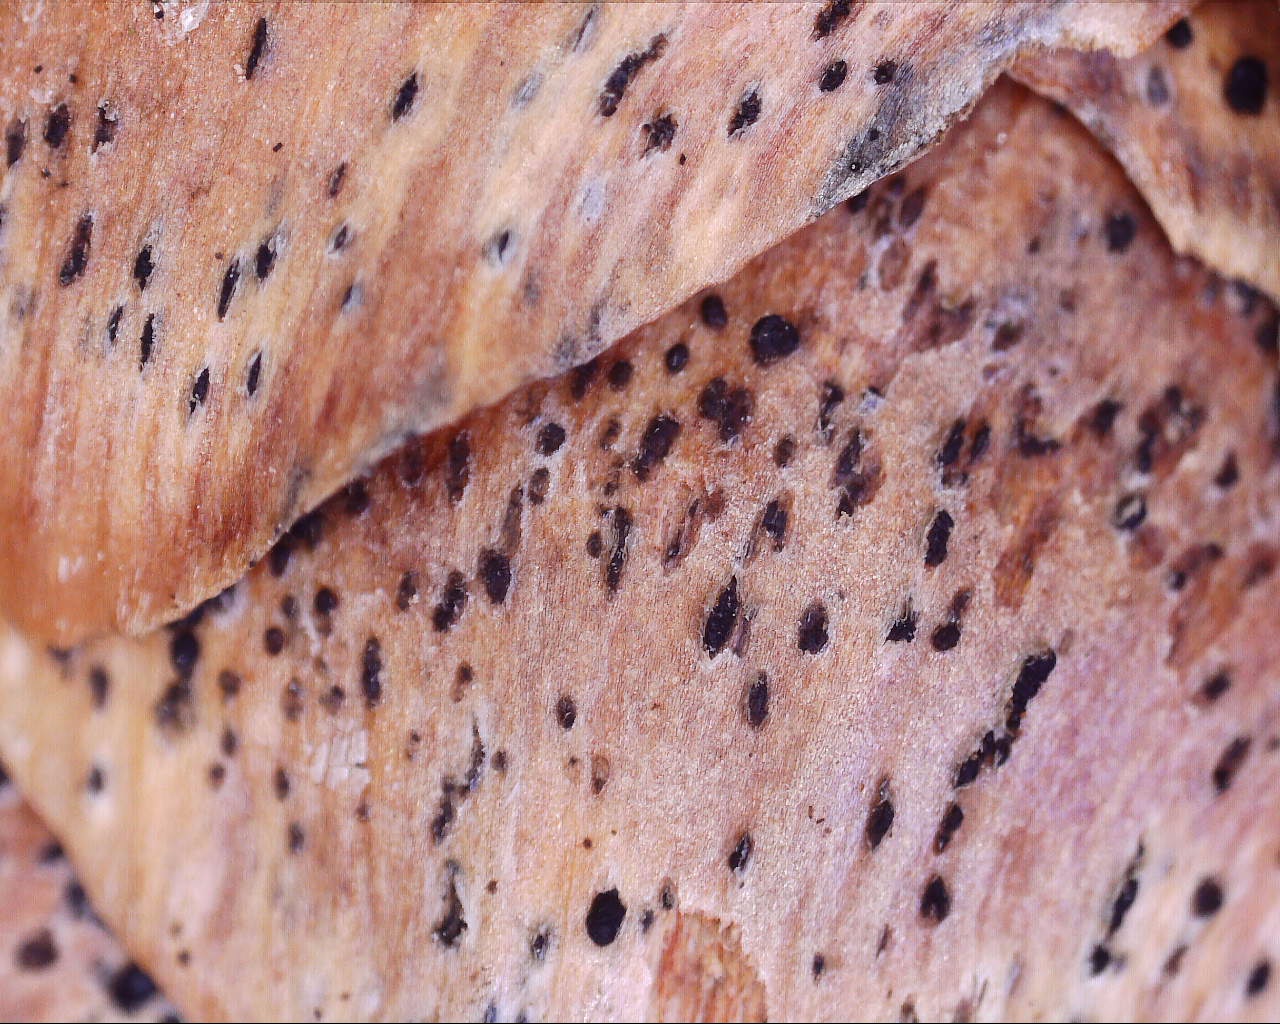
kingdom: Fungi
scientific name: Fungi
